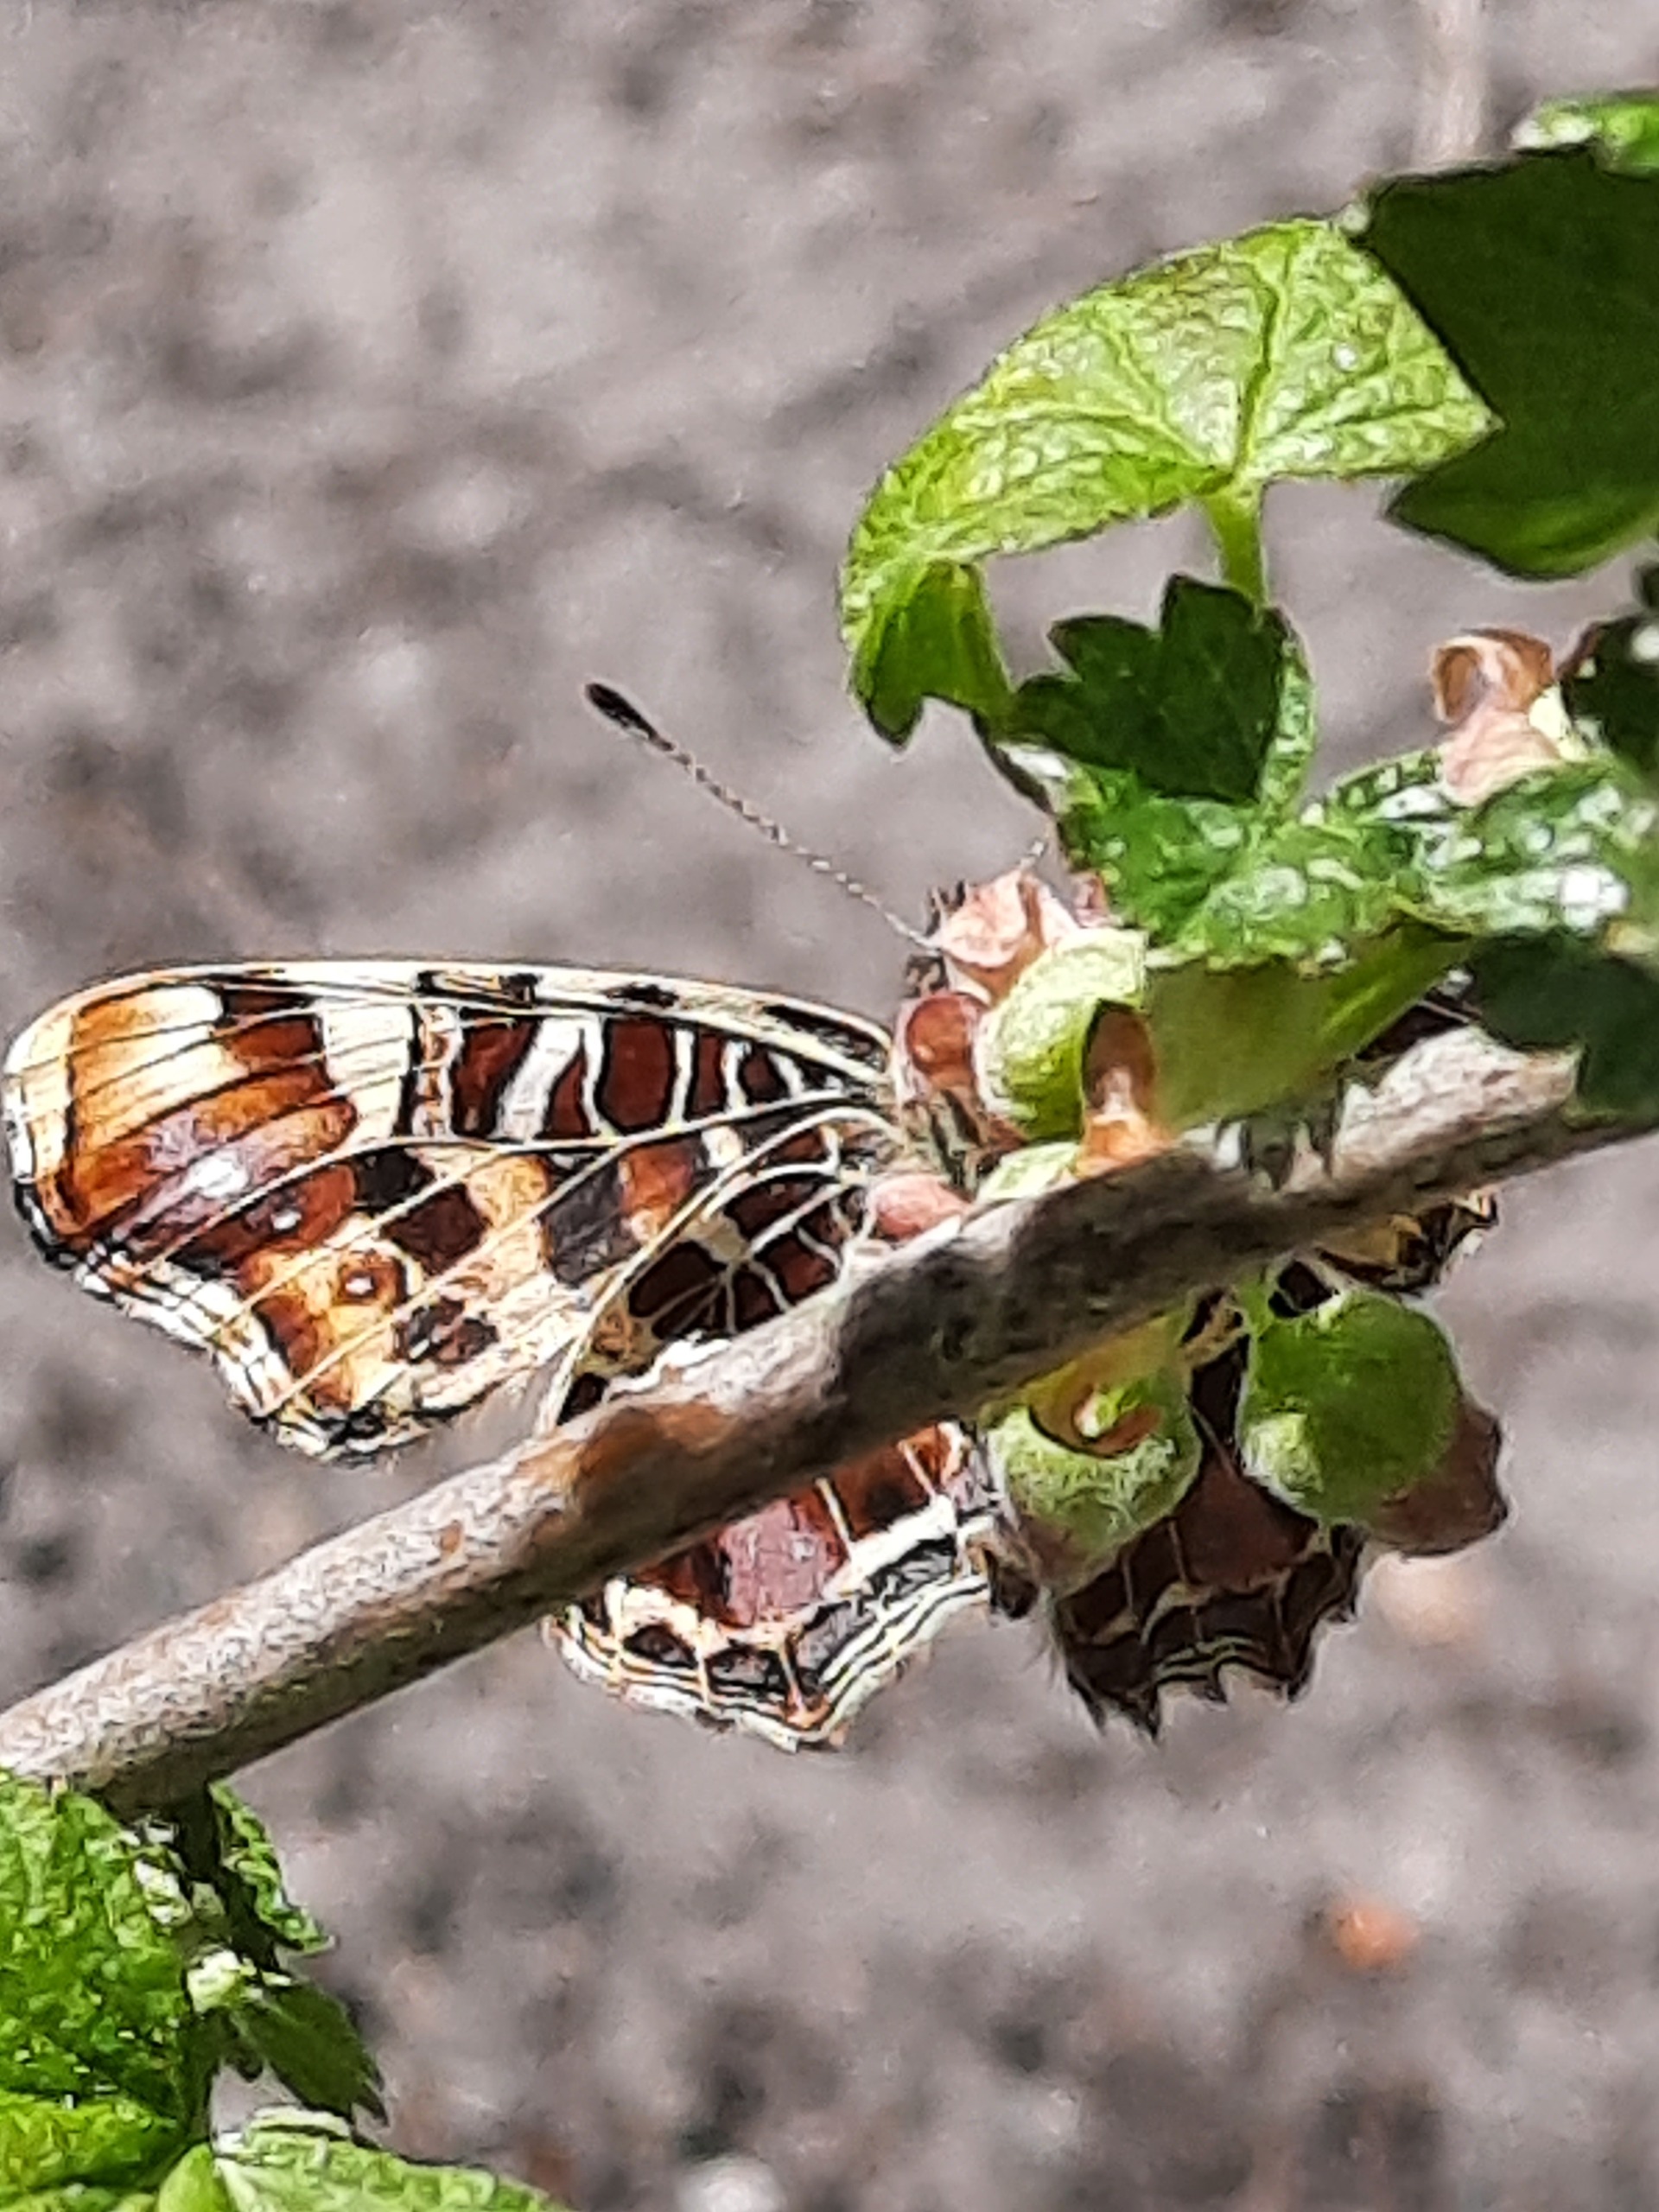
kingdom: Animalia
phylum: Arthropoda
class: Insecta
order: Lepidoptera
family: Nymphalidae
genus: Araschnia
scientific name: Araschnia levana
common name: Nældesommerfugl
